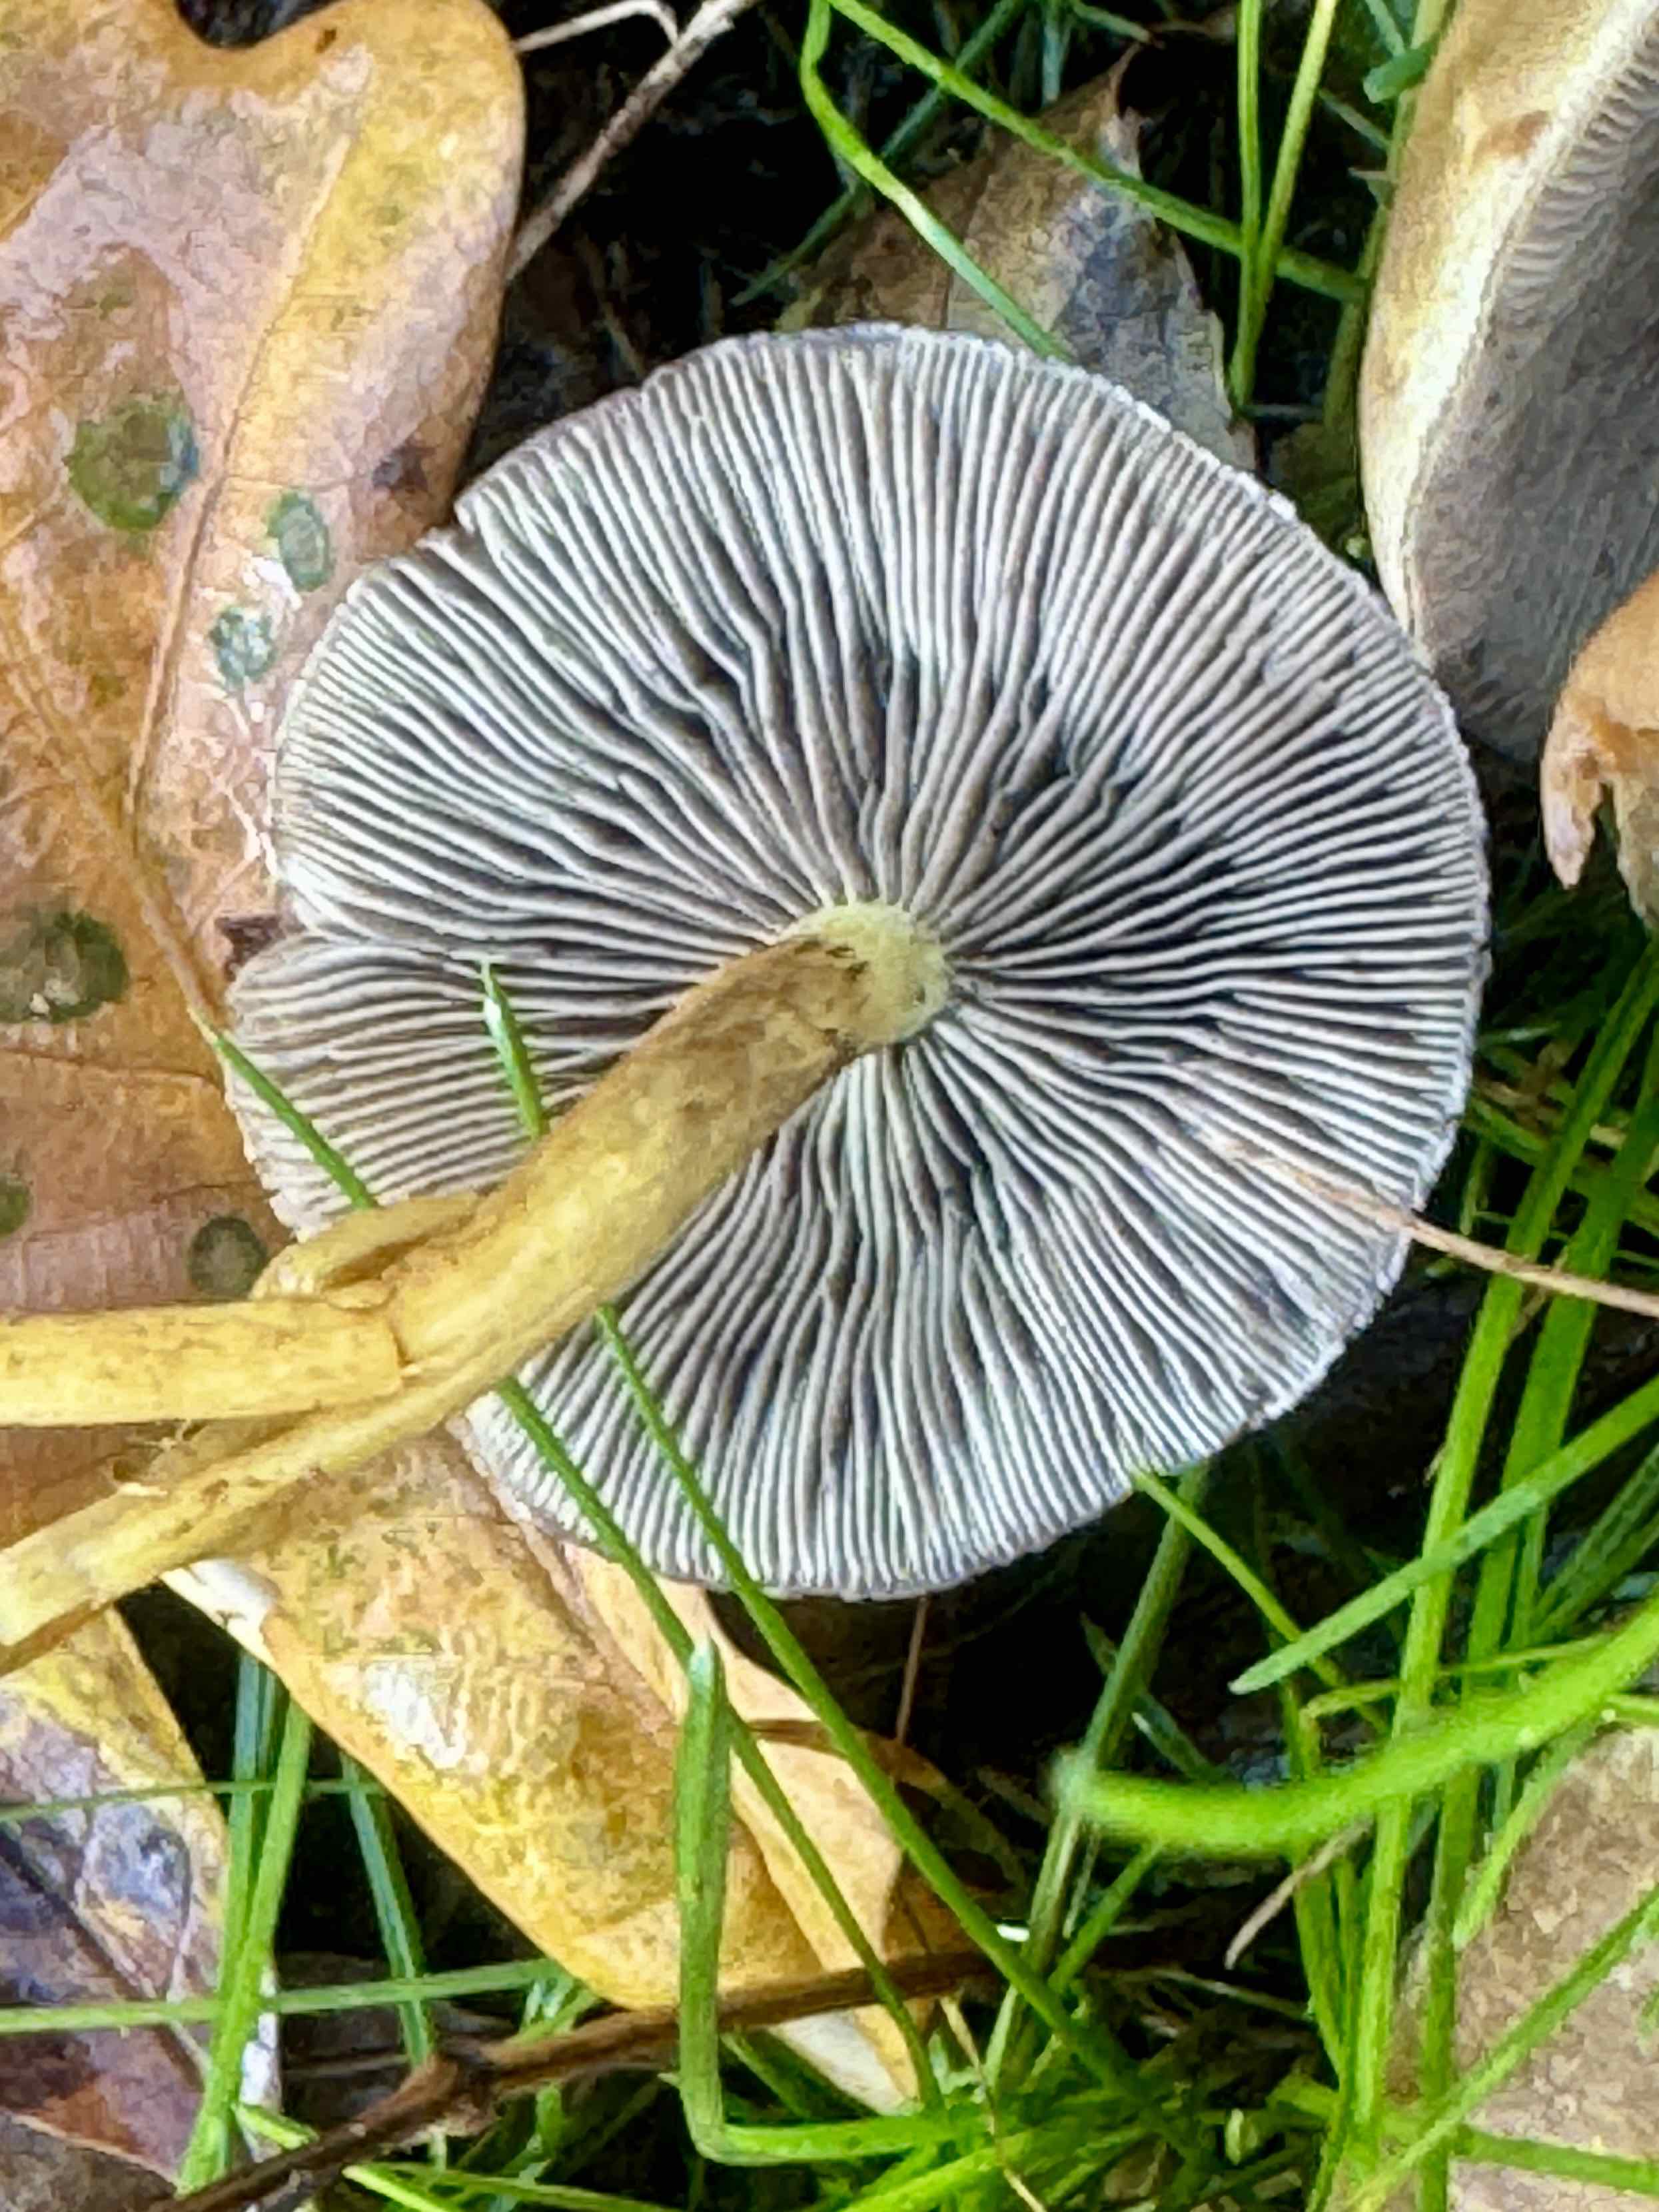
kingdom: Fungi
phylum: Basidiomycota
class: Agaricomycetes
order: Agaricales
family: Strophariaceae
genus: Hypholoma
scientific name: Hypholoma fasciculare
